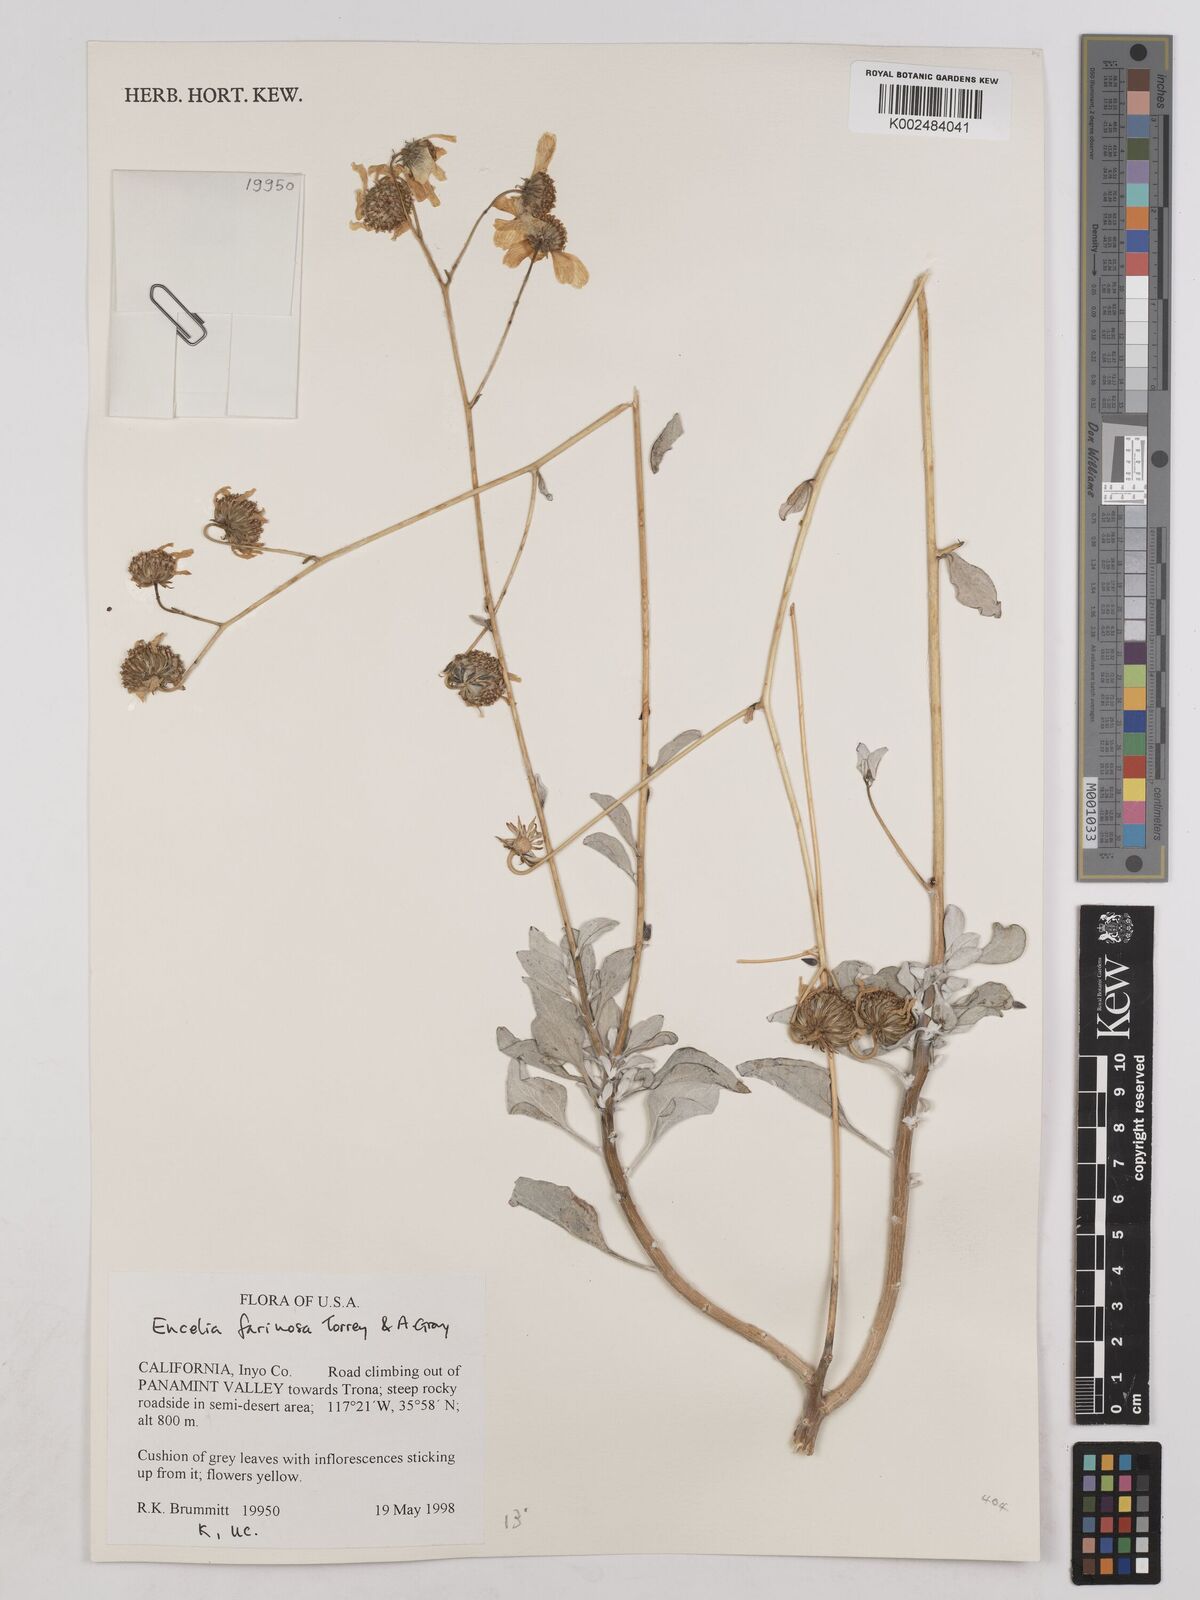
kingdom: Plantae
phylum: Tracheophyta
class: Magnoliopsida
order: Asterales
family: Asteraceae
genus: Encelia
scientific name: Encelia farinosa
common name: Brittlebush
